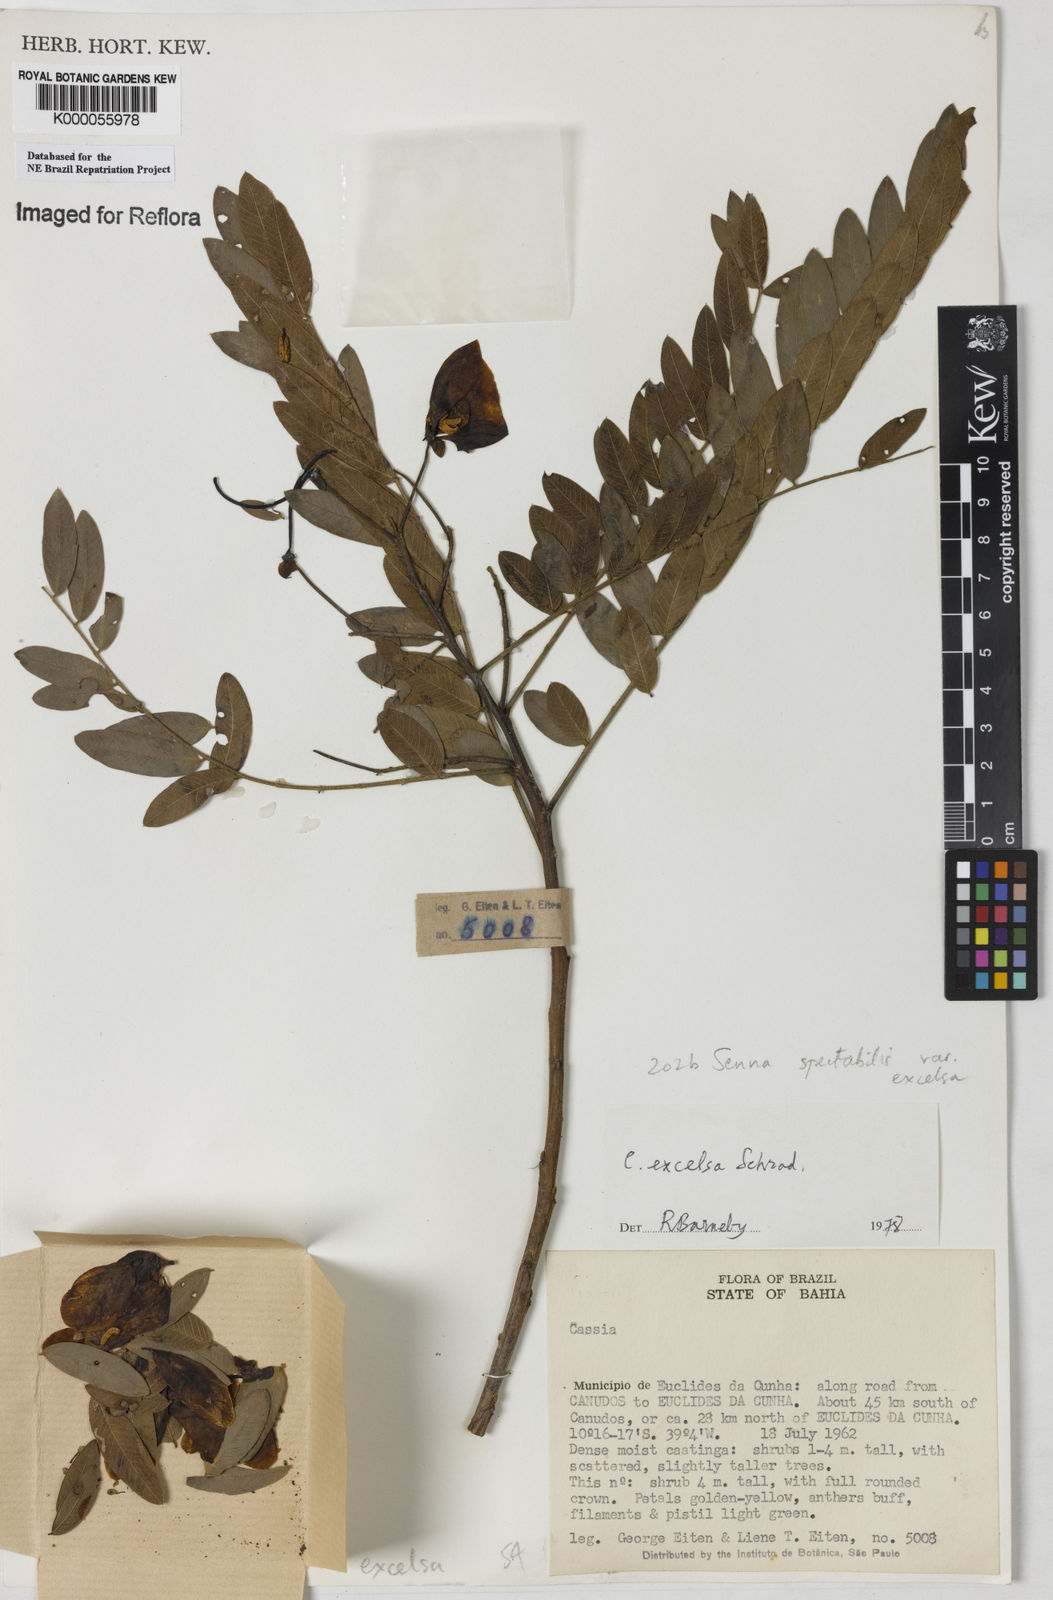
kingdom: Plantae
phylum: Tracheophyta
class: Magnoliopsida
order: Fabales
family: Fabaceae
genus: Senna
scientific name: Senna spectabilis
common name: Casia amarilla
